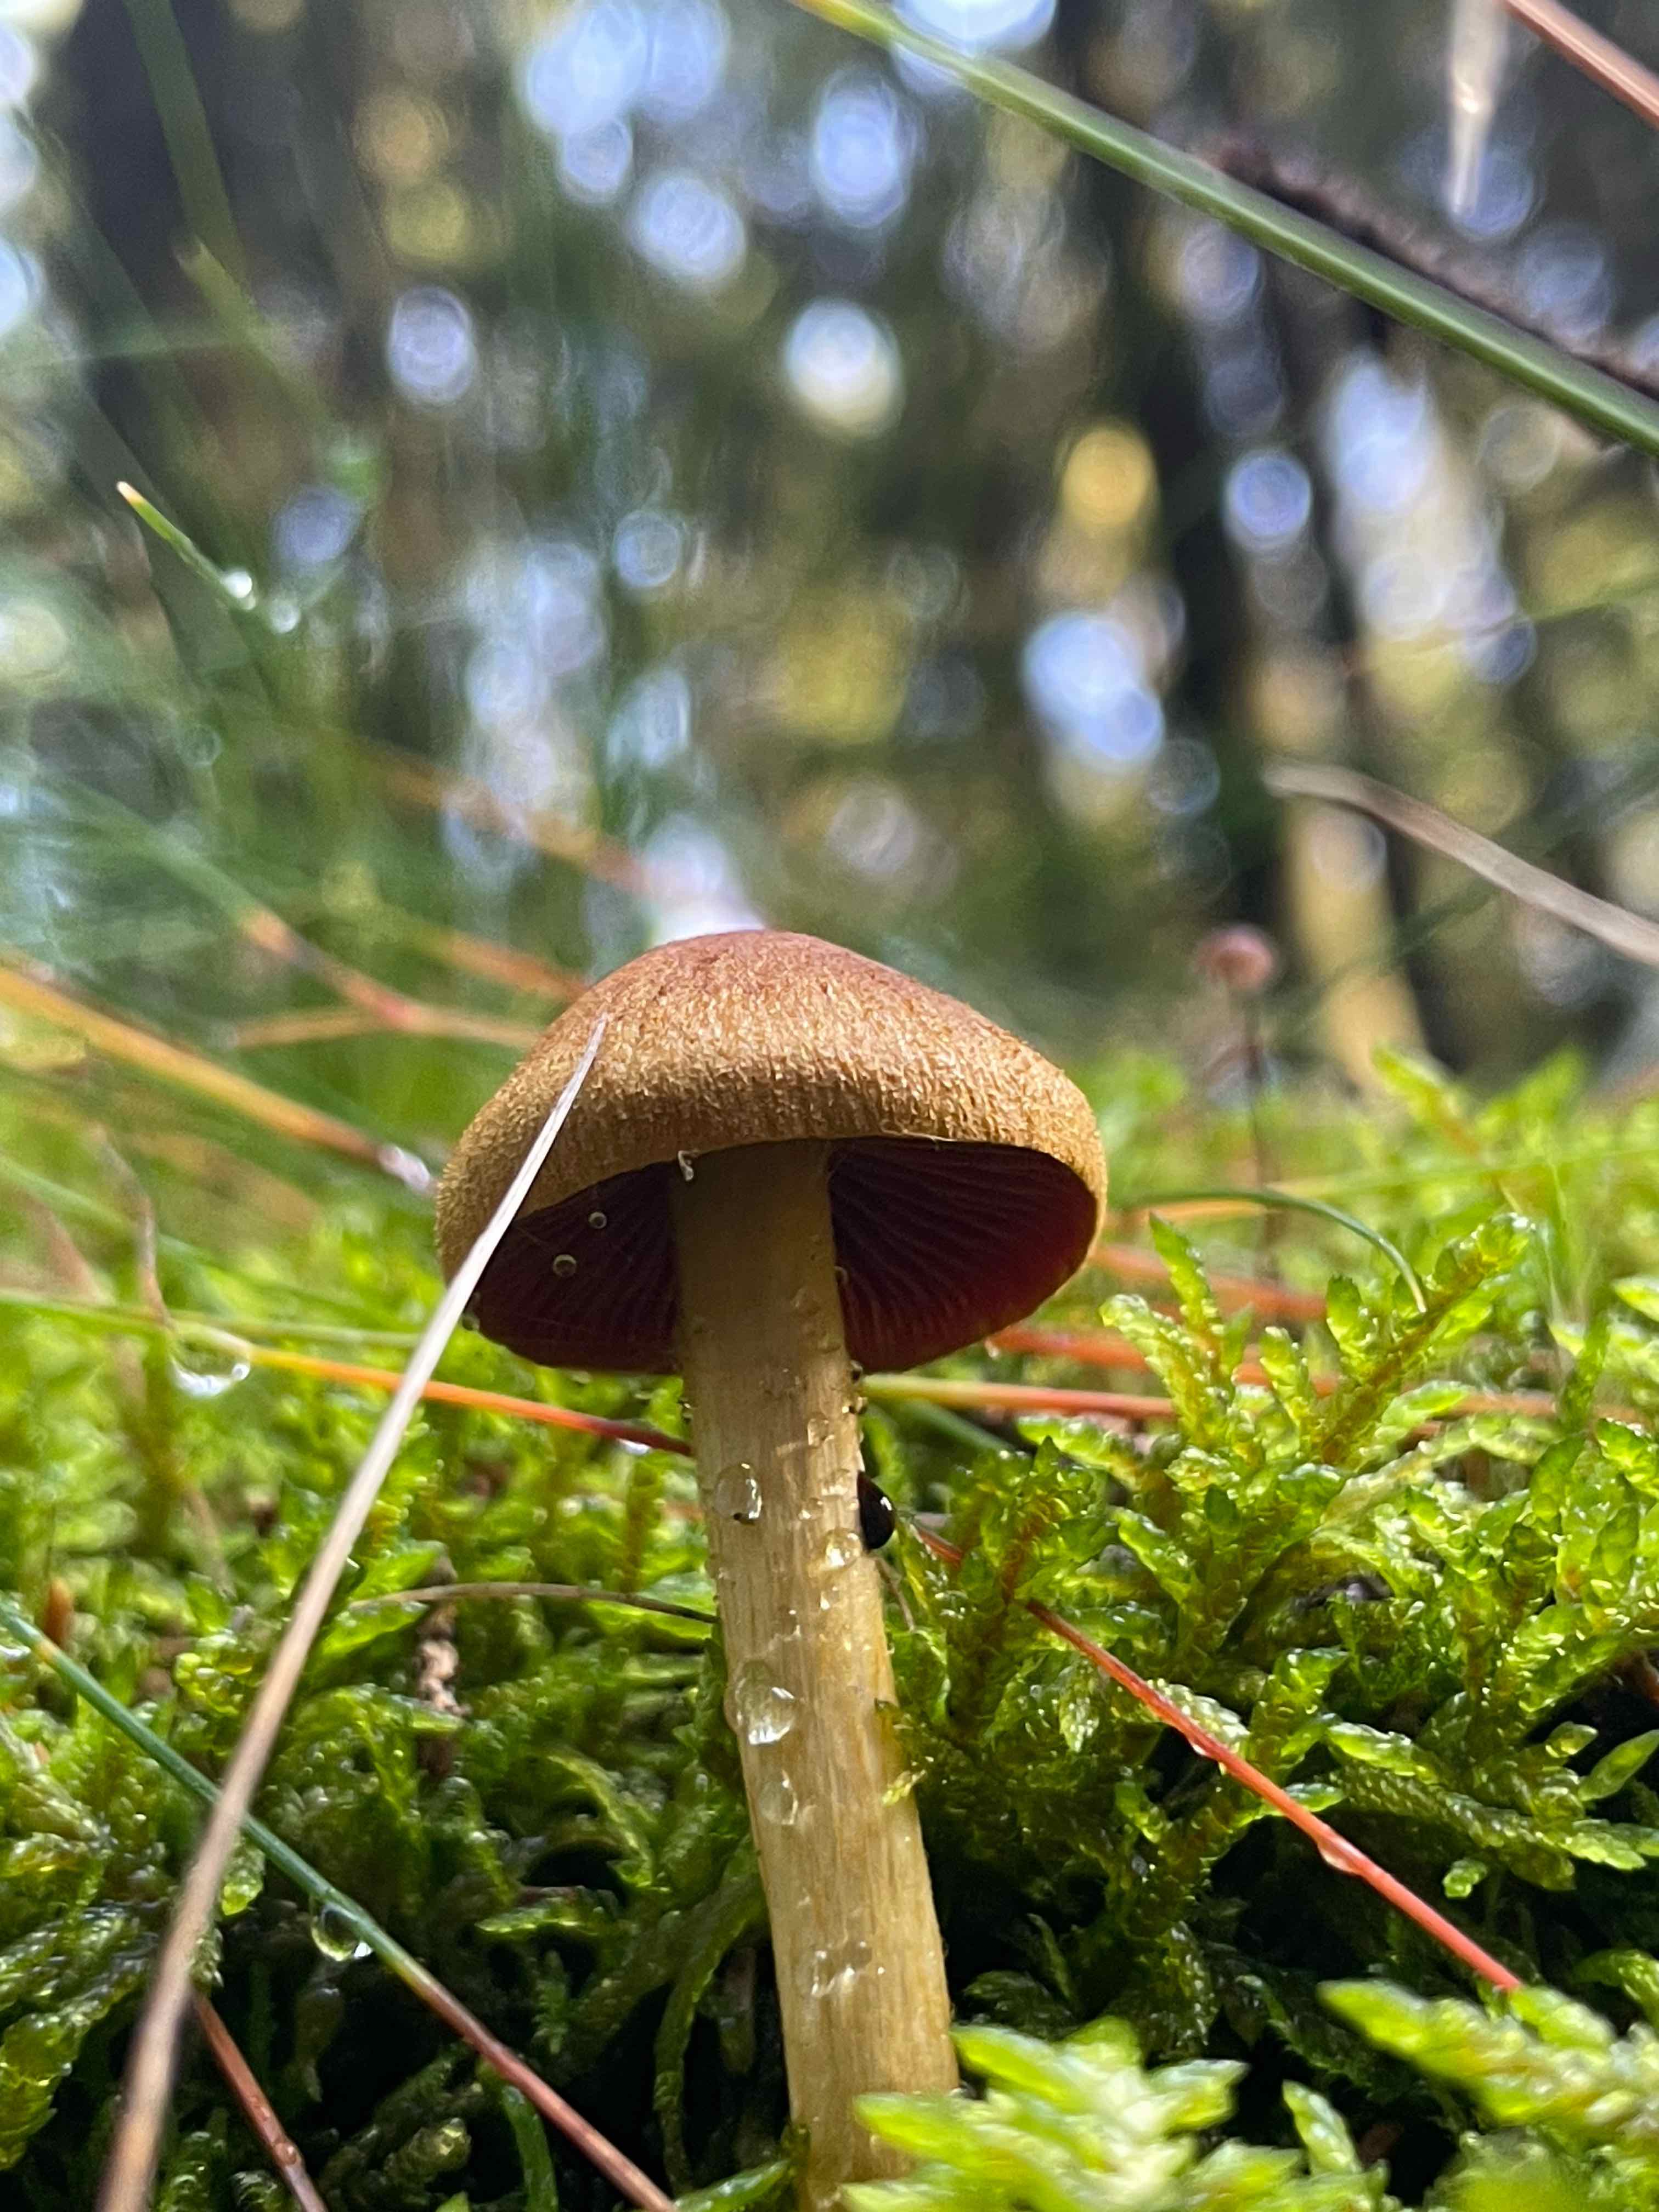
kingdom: Fungi
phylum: Basidiomycota
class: Agaricomycetes
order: Agaricales
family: Cortinariaceae
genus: Cortinarius
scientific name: Cortinarius
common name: cinnoberbladet slørhat
